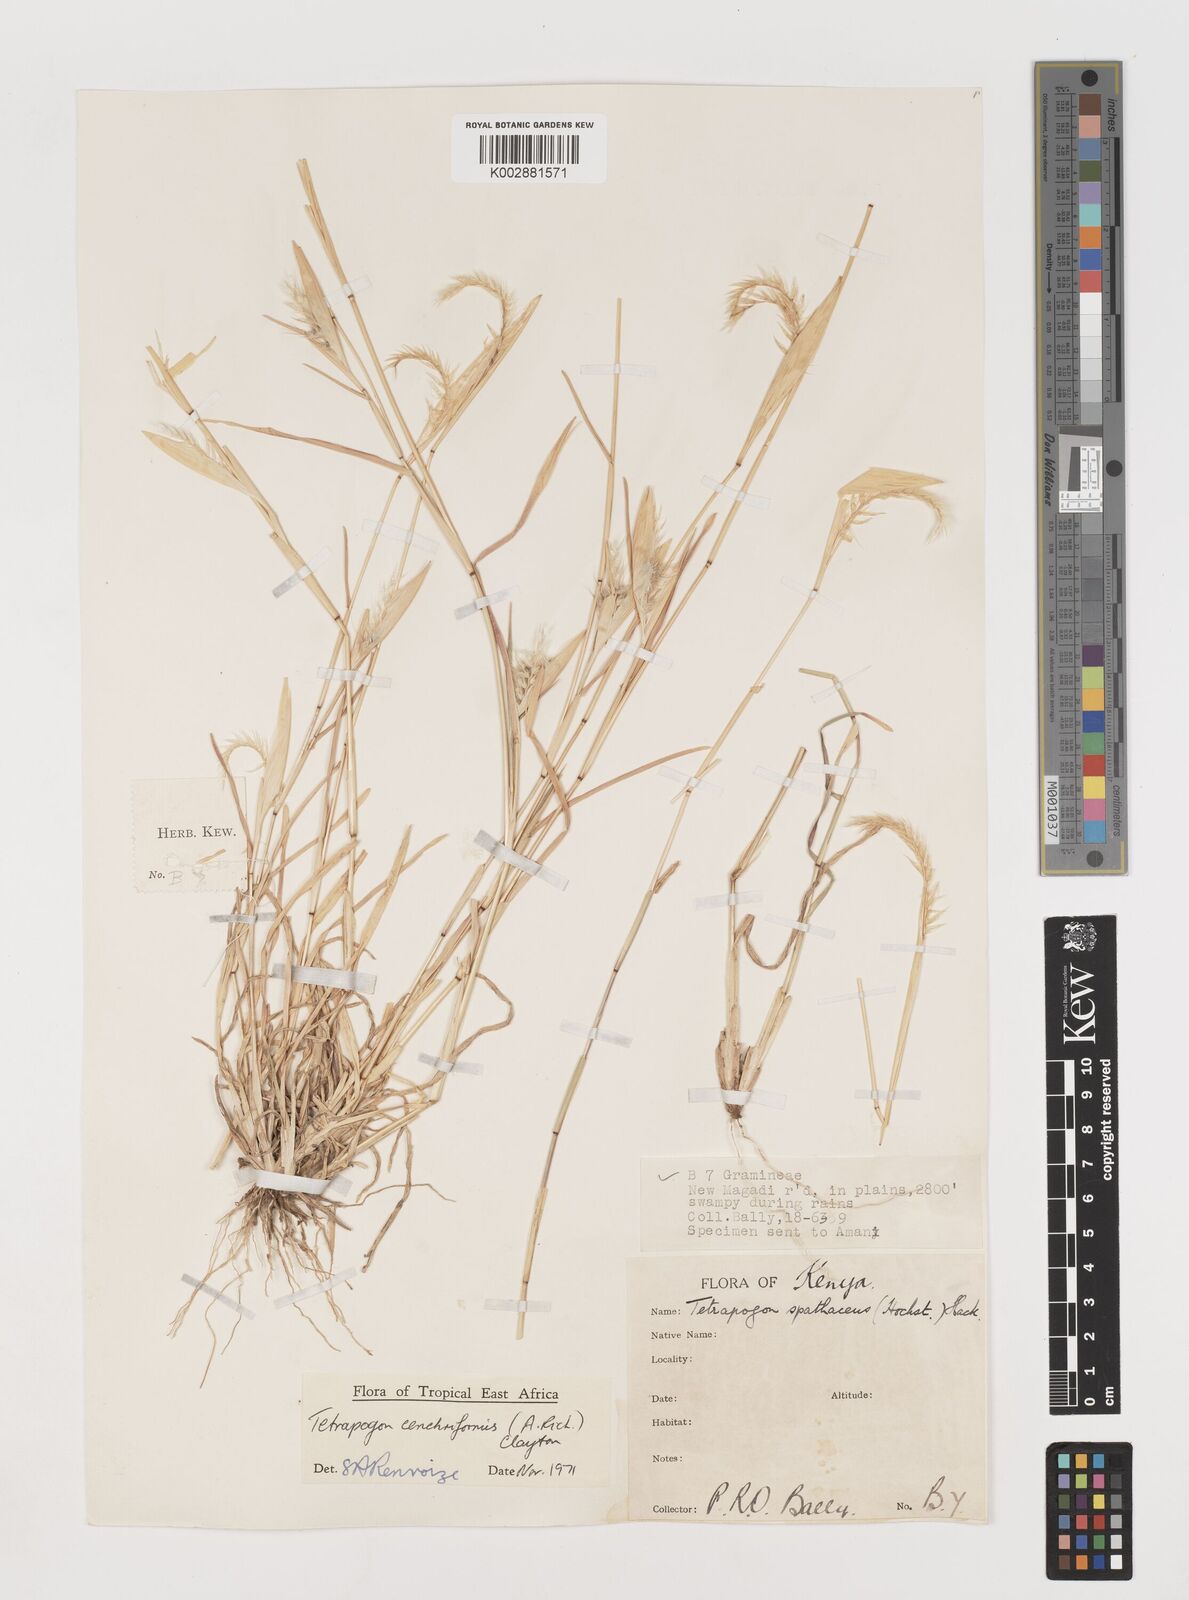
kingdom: Plantae
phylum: Tracheophyta
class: Liliopsida
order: Poales
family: Poaceae
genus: Tetrapogon
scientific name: Tetrapogon cenchriformis
